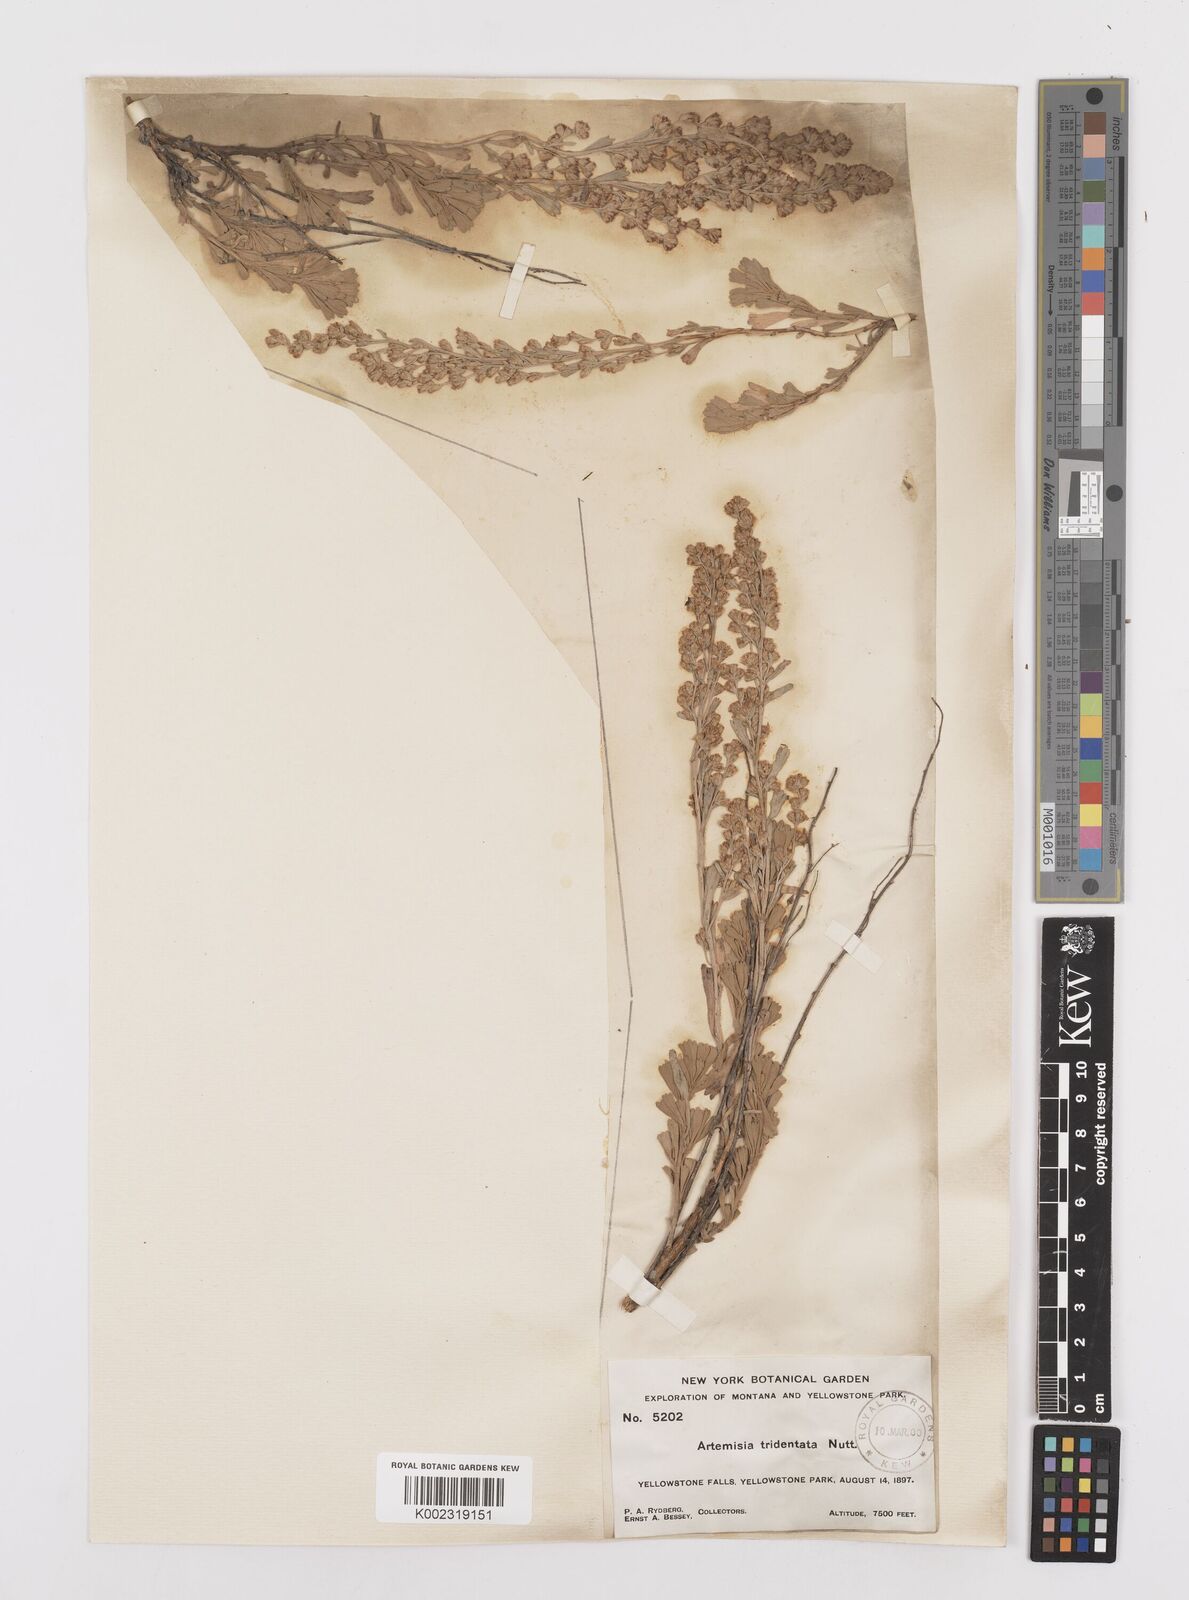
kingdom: Plantae
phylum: Tracheophyta
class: Magnoliopsida
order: Asterales
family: Asteraceae
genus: Artemisia
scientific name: Artemisia tridentata
